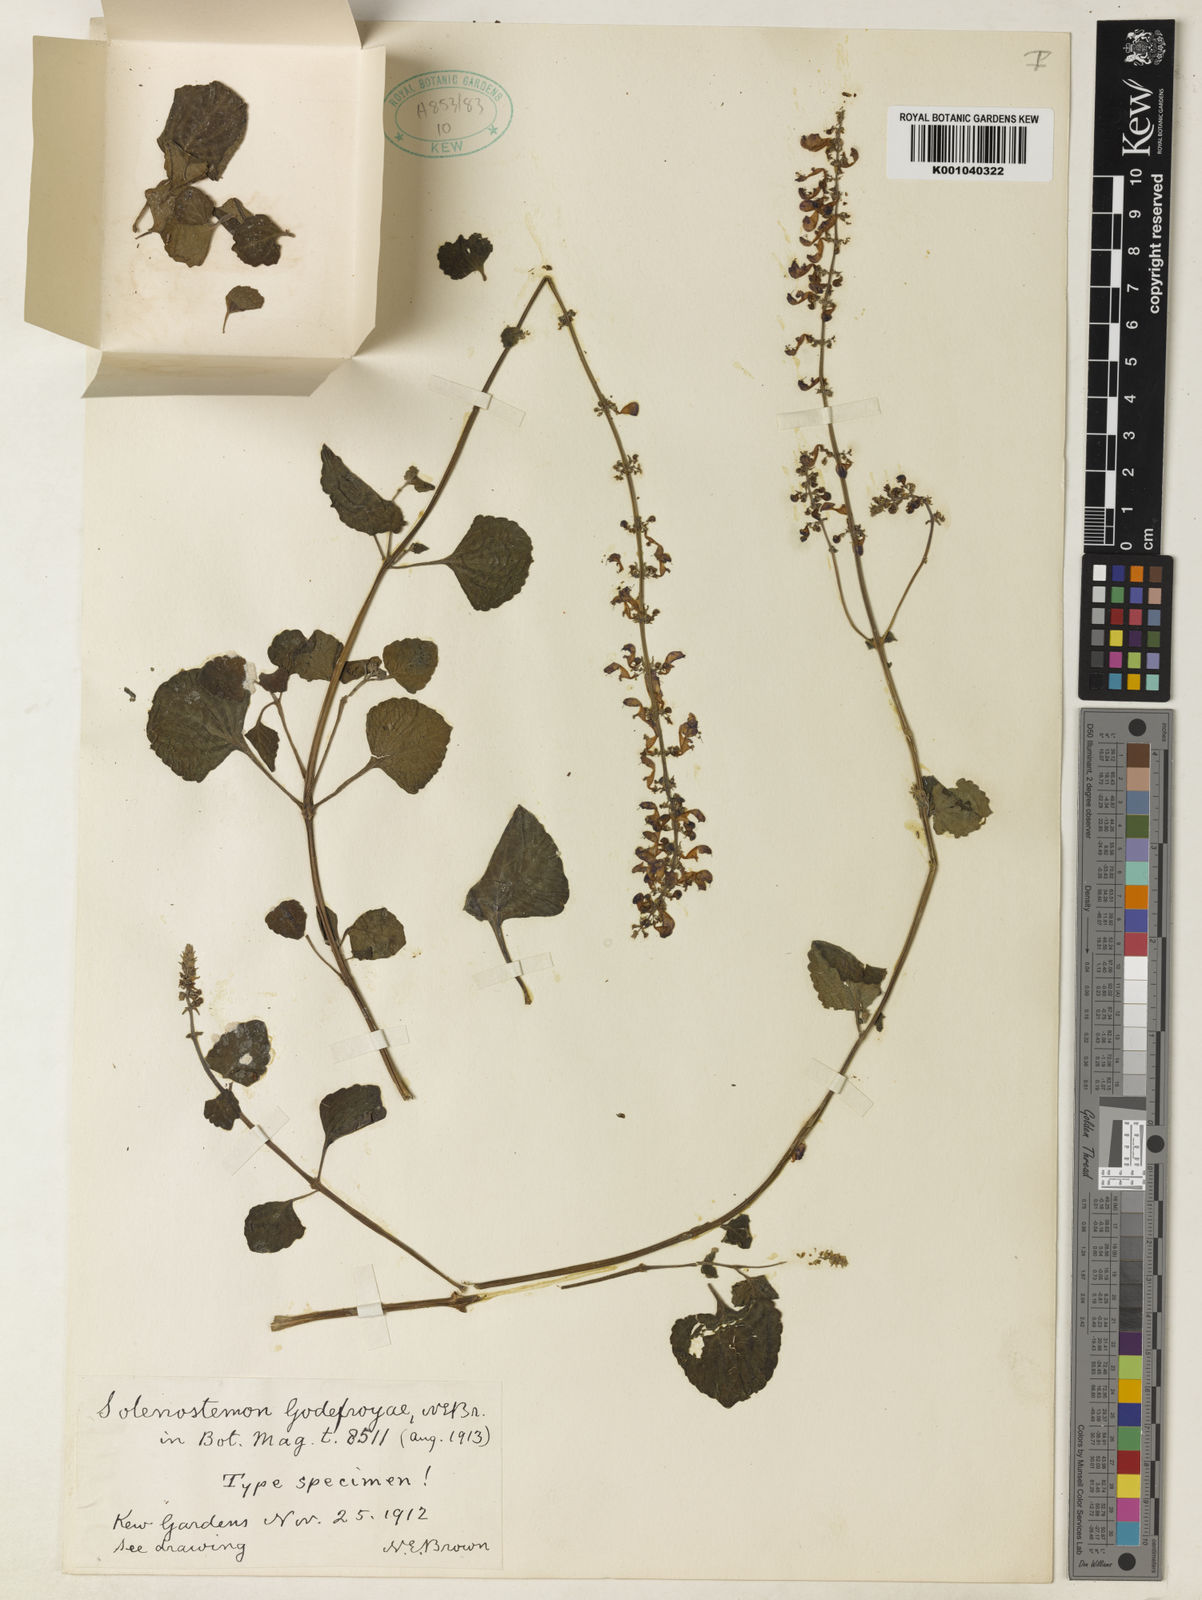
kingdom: Plantae
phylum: Tracheophyta
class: Magnoliopsida
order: Lamiales
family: Lamiaceae
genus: Plectranthus
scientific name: Plectranthus godefroyae
